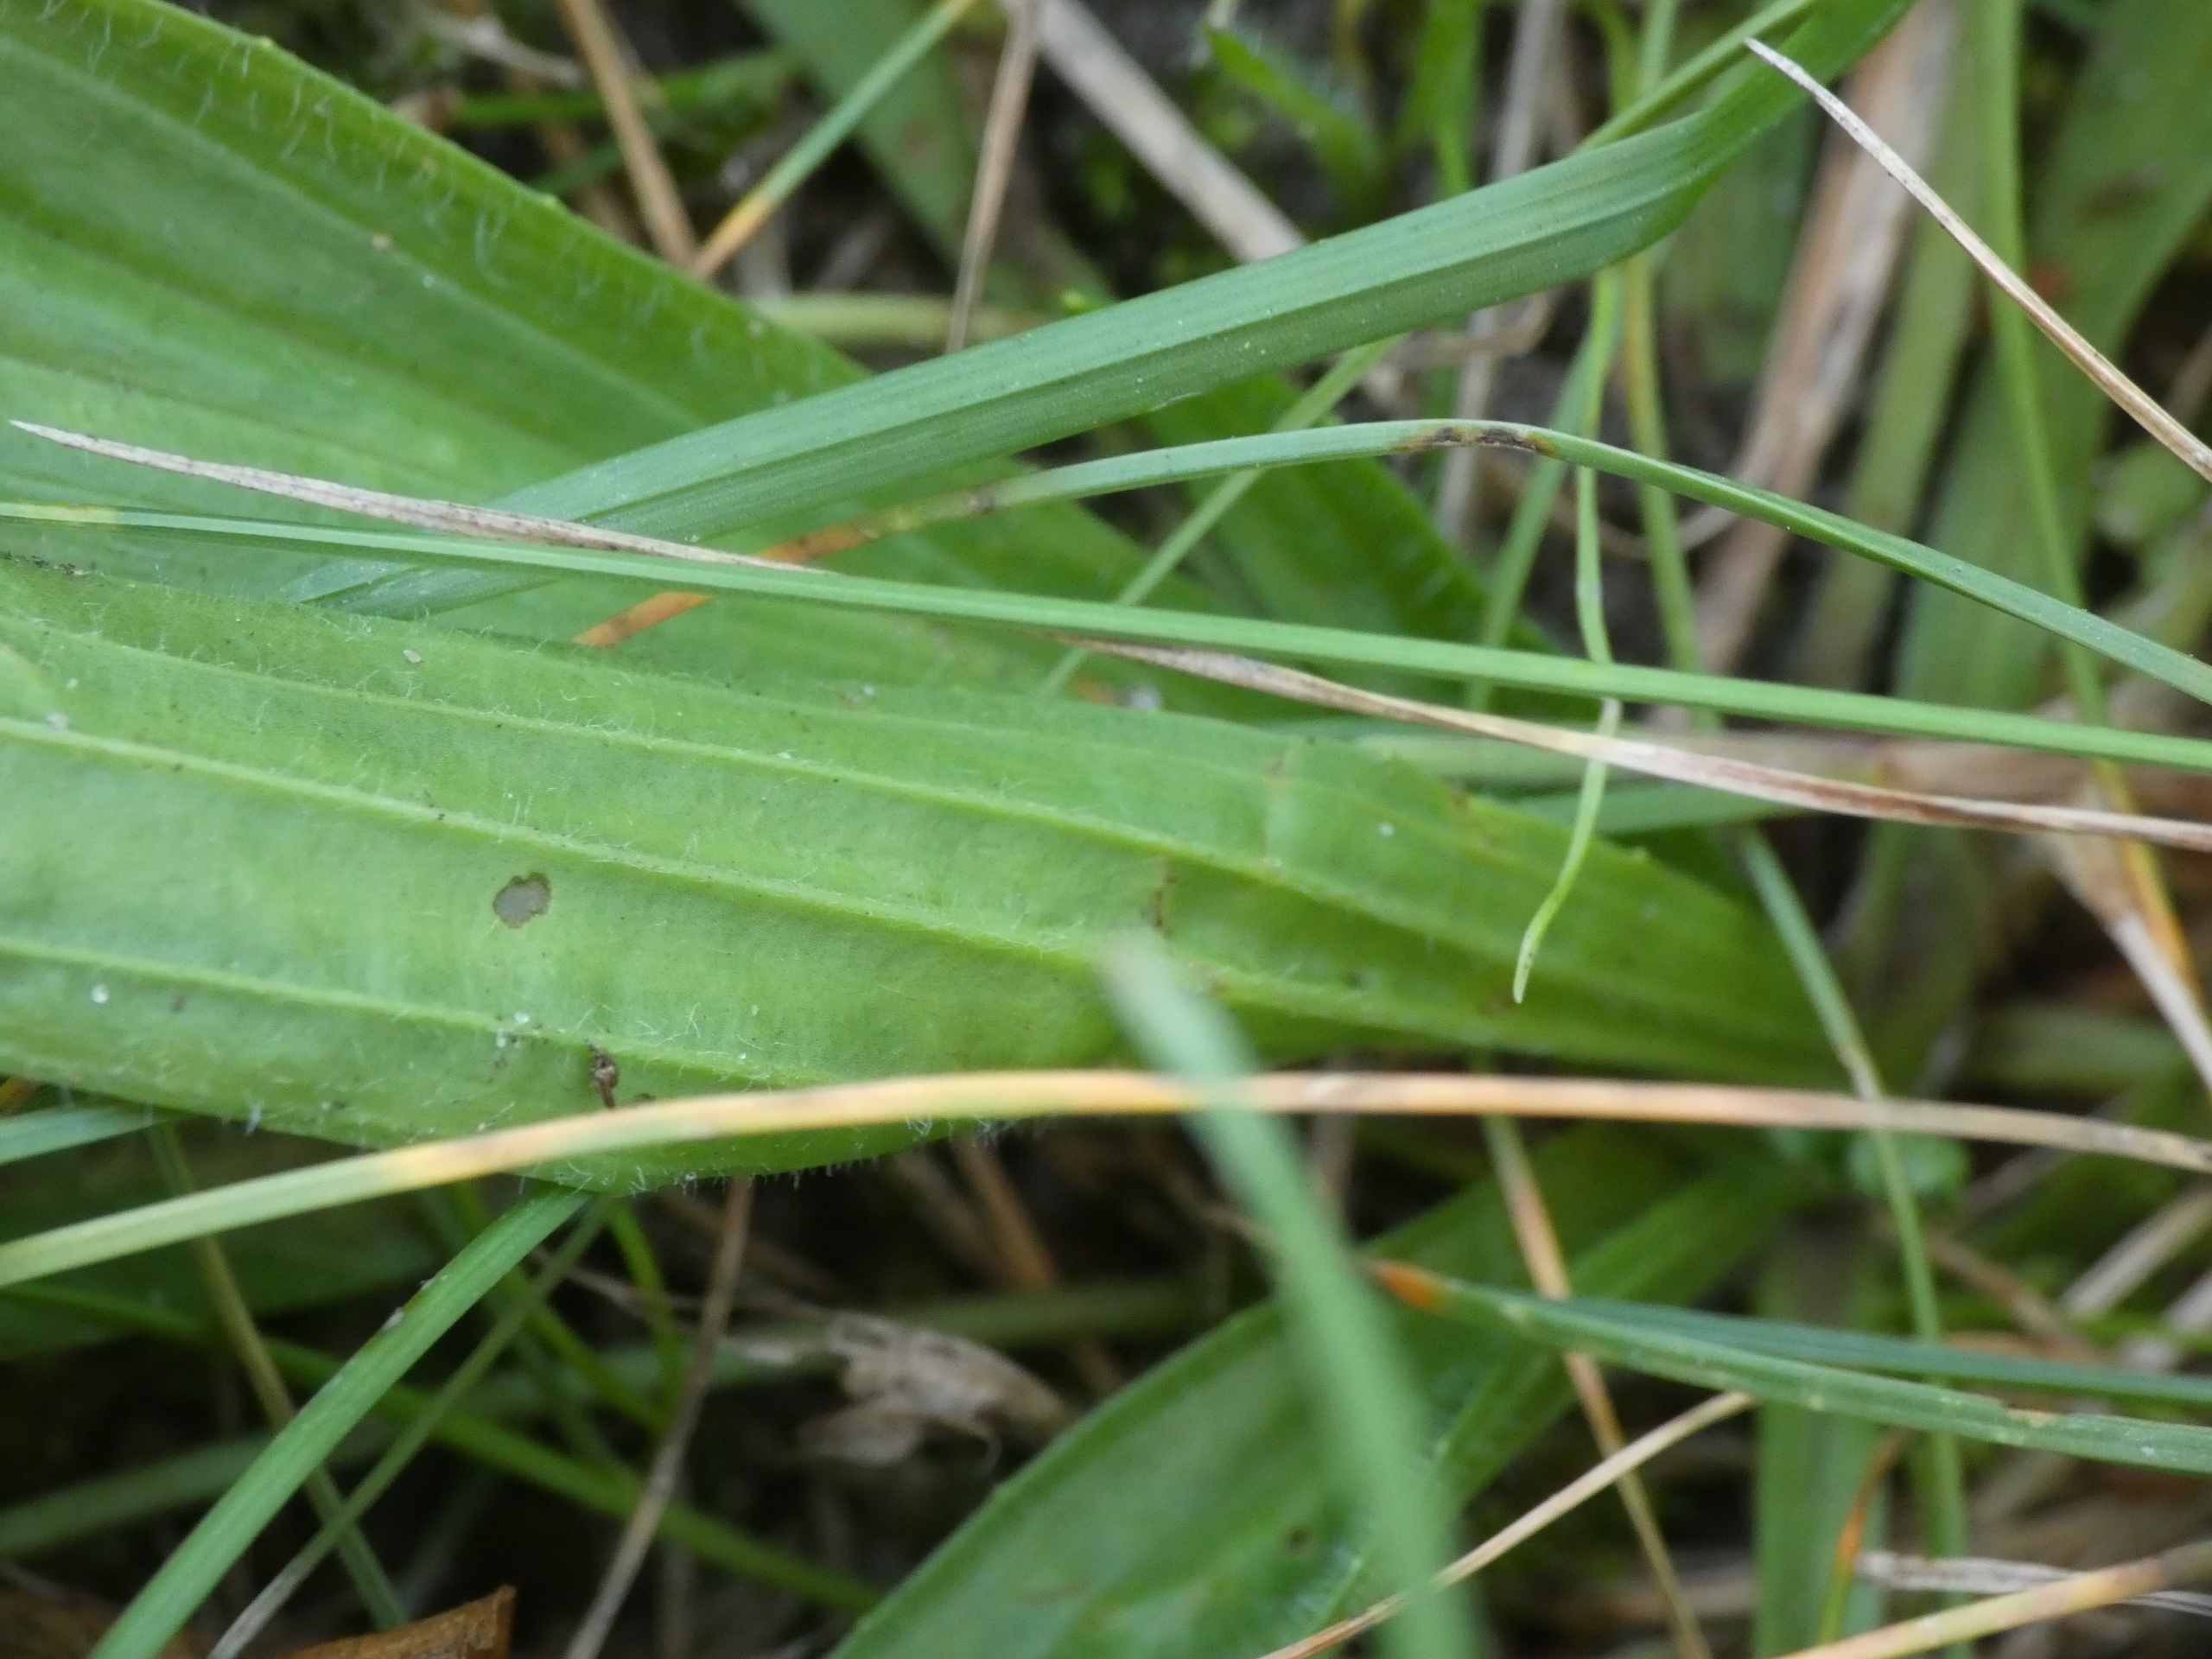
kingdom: Plantae
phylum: Tracheophyta
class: Magnoliopsida
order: Lamiales
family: Plantaginaceae
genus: Plantago
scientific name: Plantago lanceolata
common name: Lancet-vejbred
